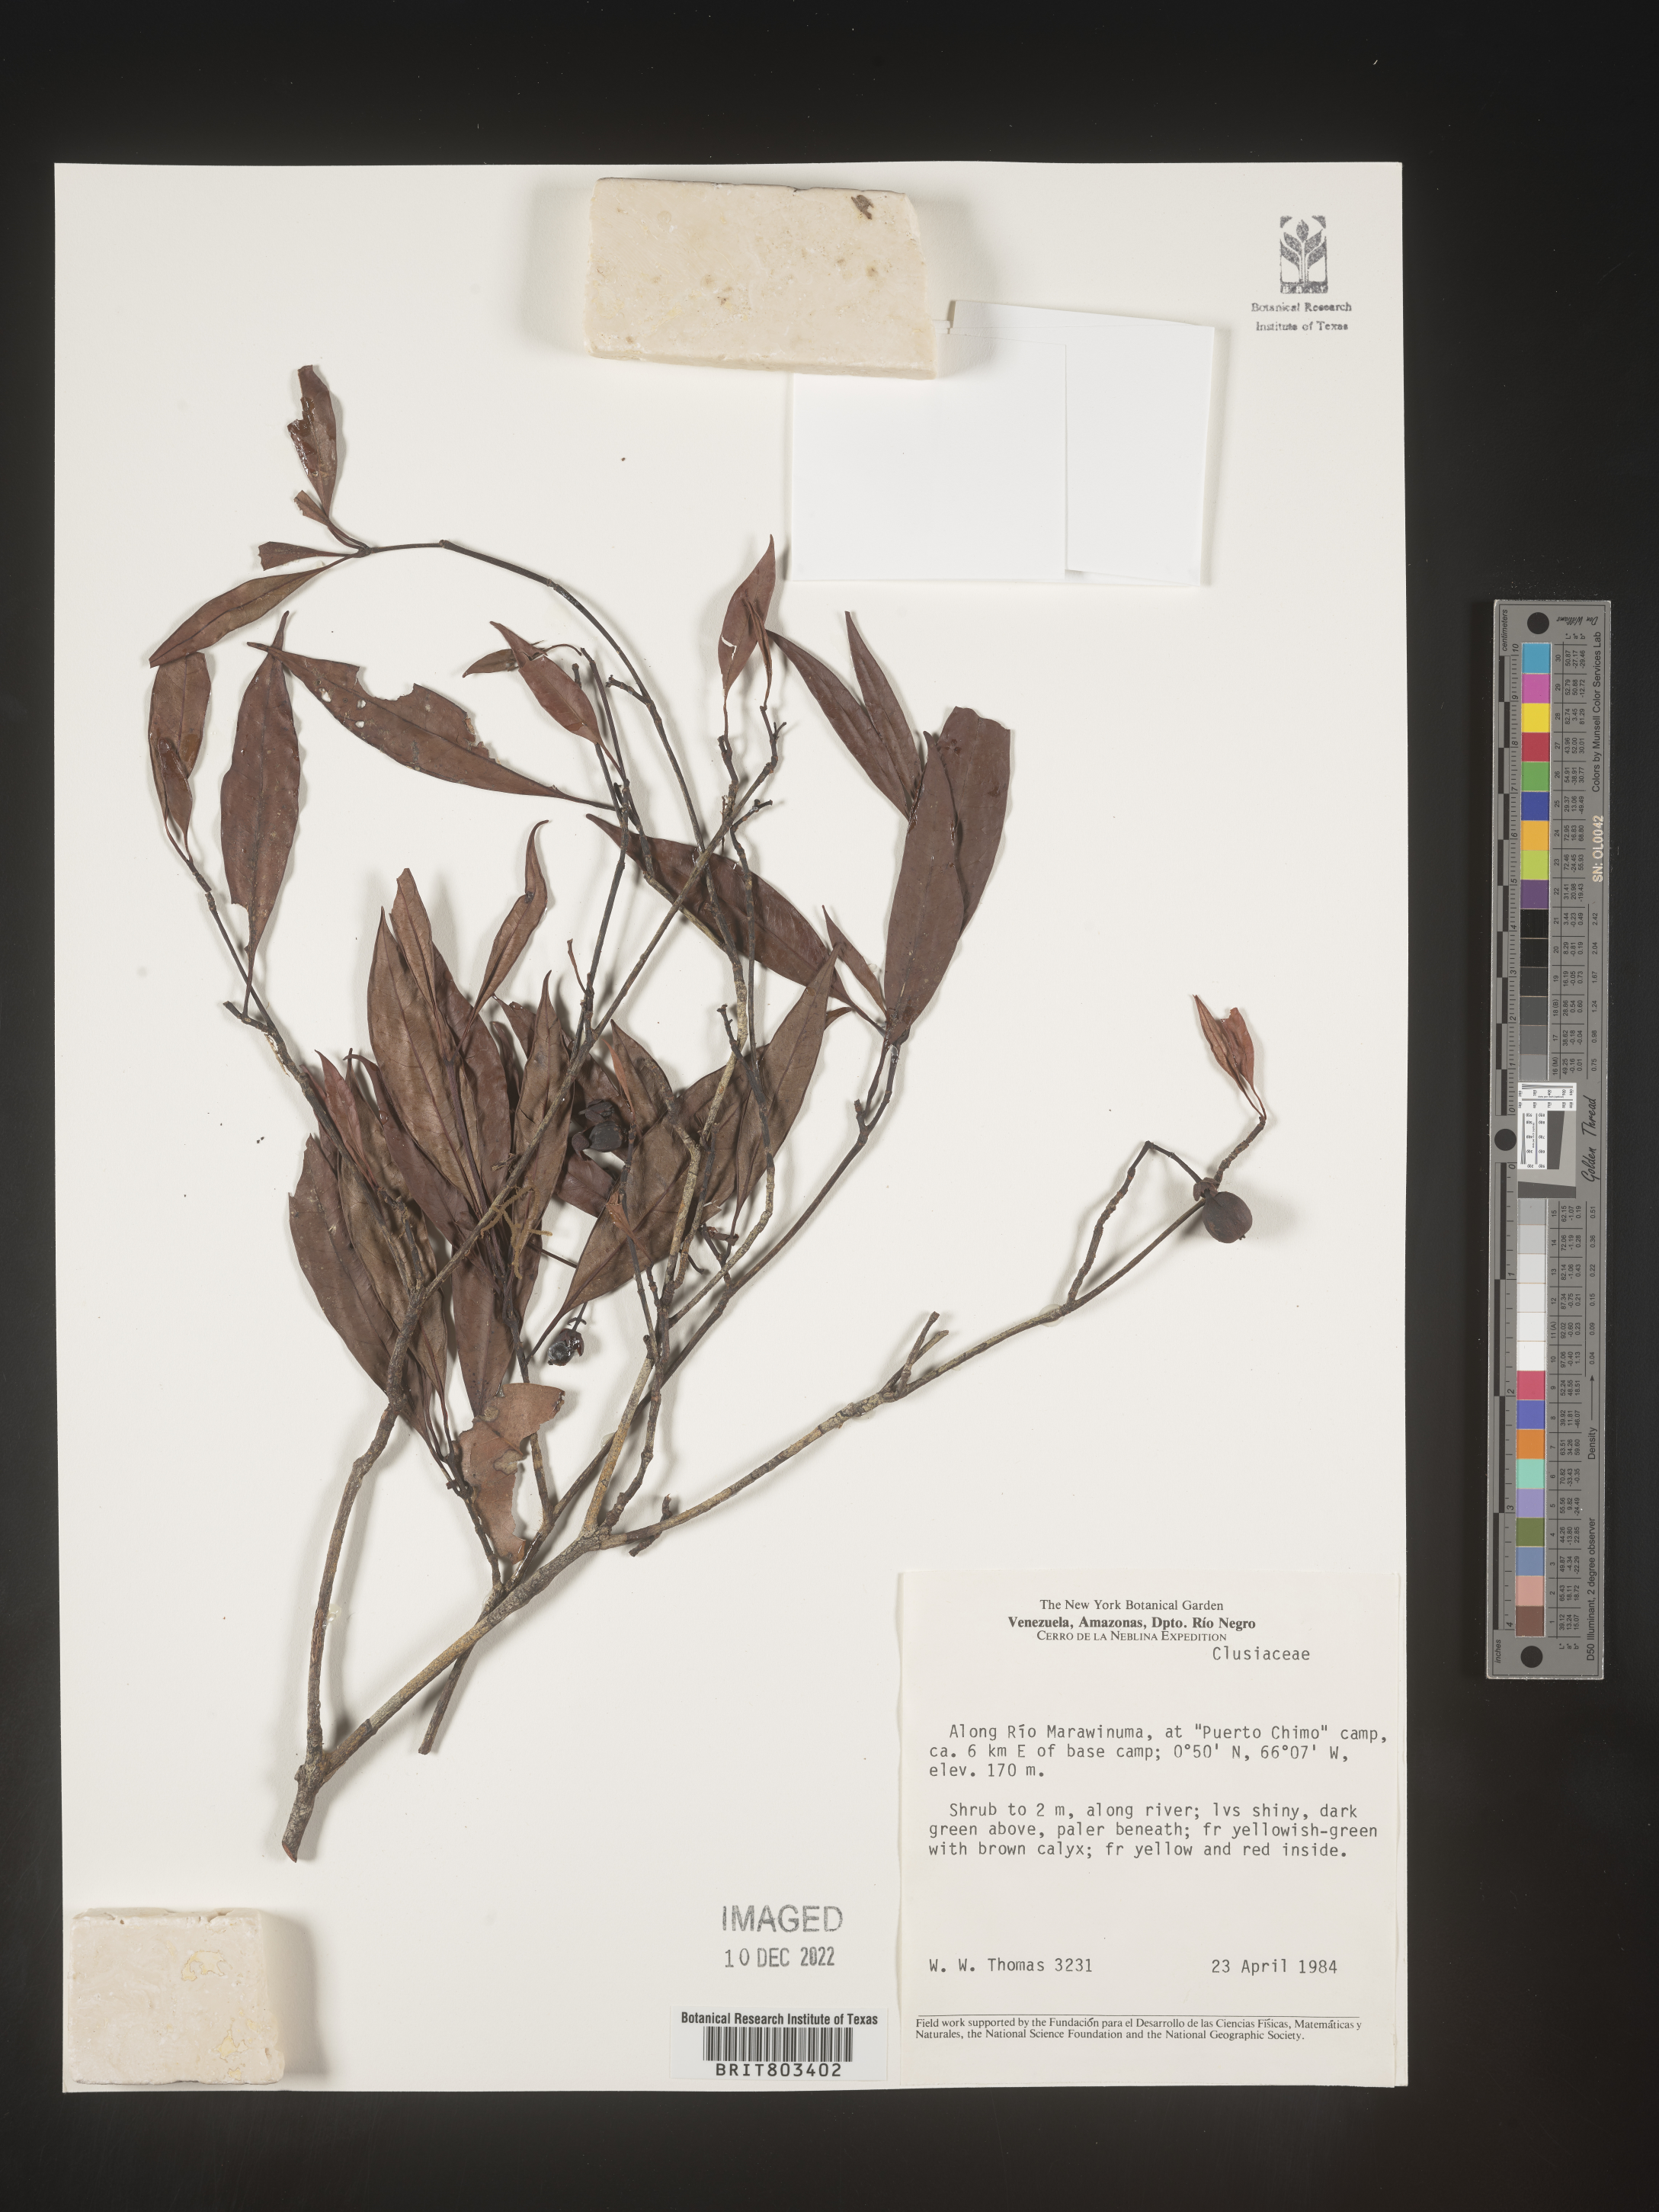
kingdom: Plantae
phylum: Tracheophyta
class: Magnoliopsida
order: Malpighiales
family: Clusiaceae
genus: Tovomita
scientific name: Tovomita
